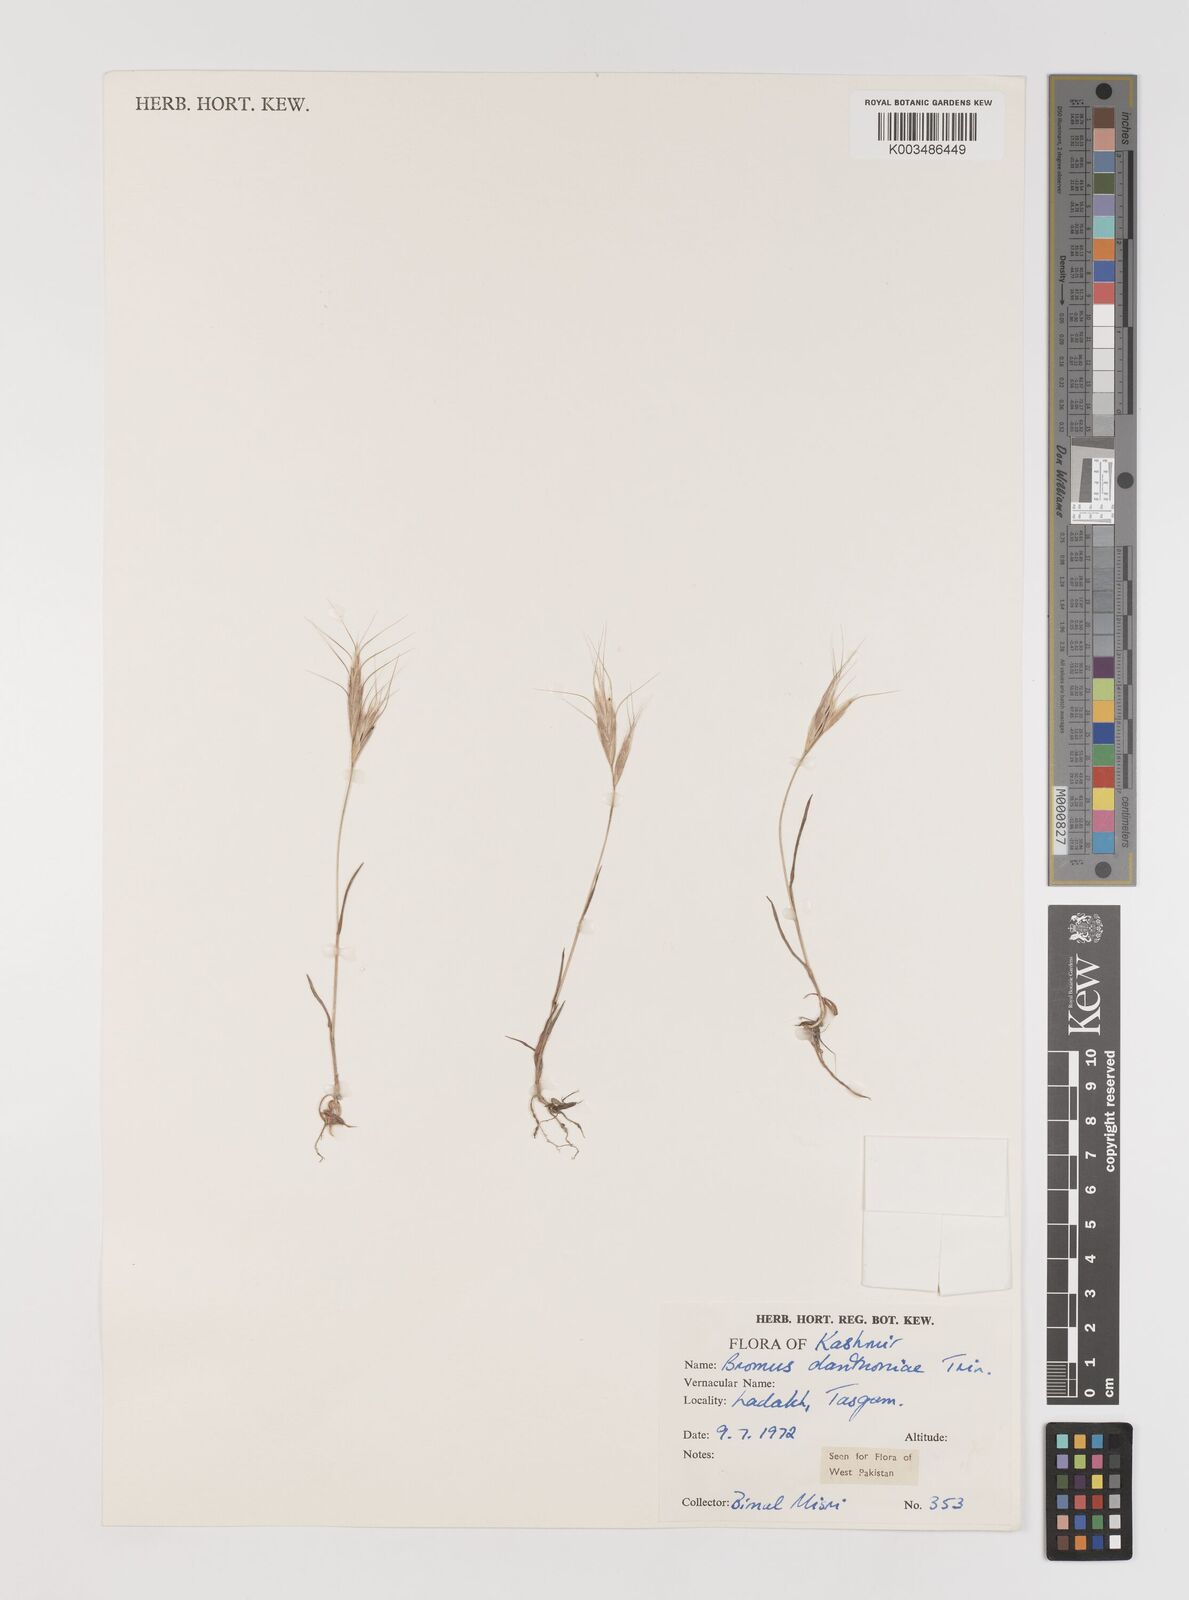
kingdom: Plantae
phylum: Tracheophyta
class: Liliopsida
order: Poales
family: Poaceae
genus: Bromus
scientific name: Bromus danthoniae
